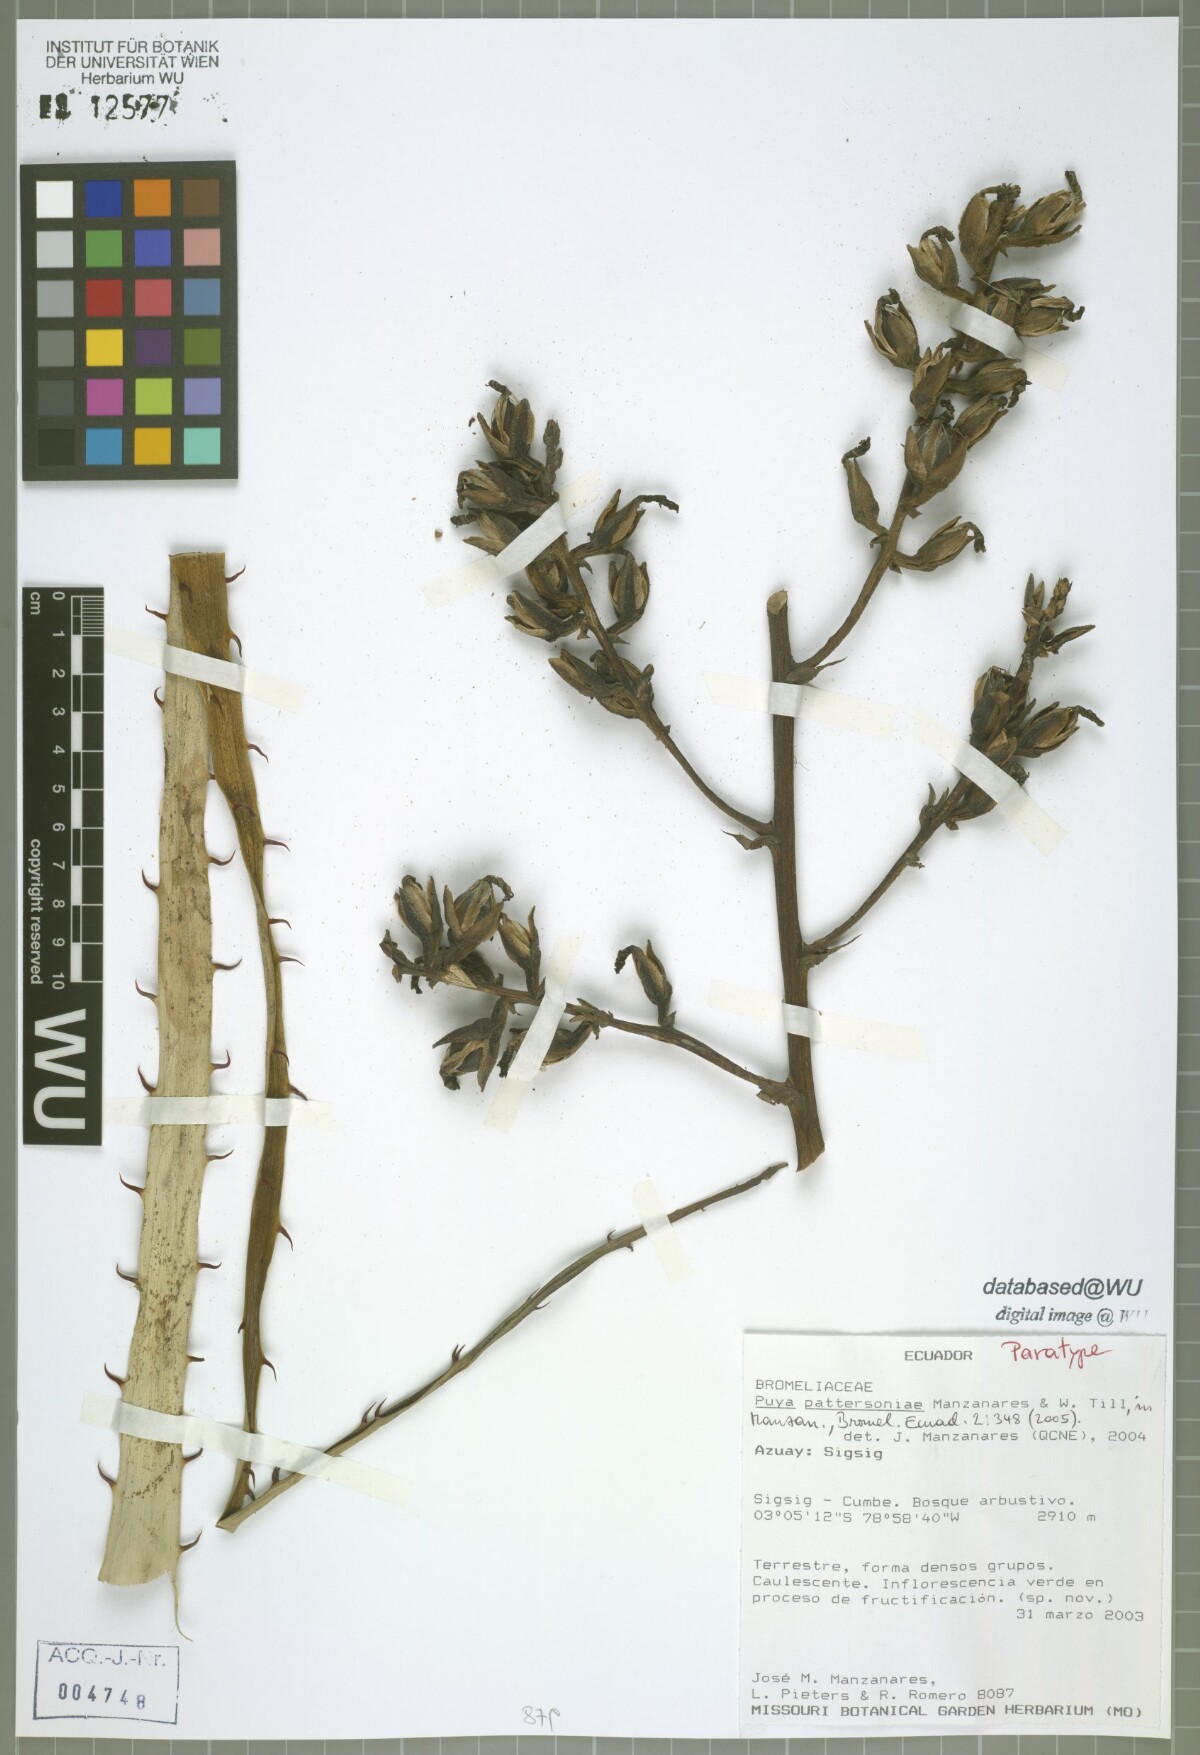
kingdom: Plantae
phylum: Tracheophyta
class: Liliopsida
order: Poales
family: Bromeliaceae
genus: Puya
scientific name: Puya pattersoniae
